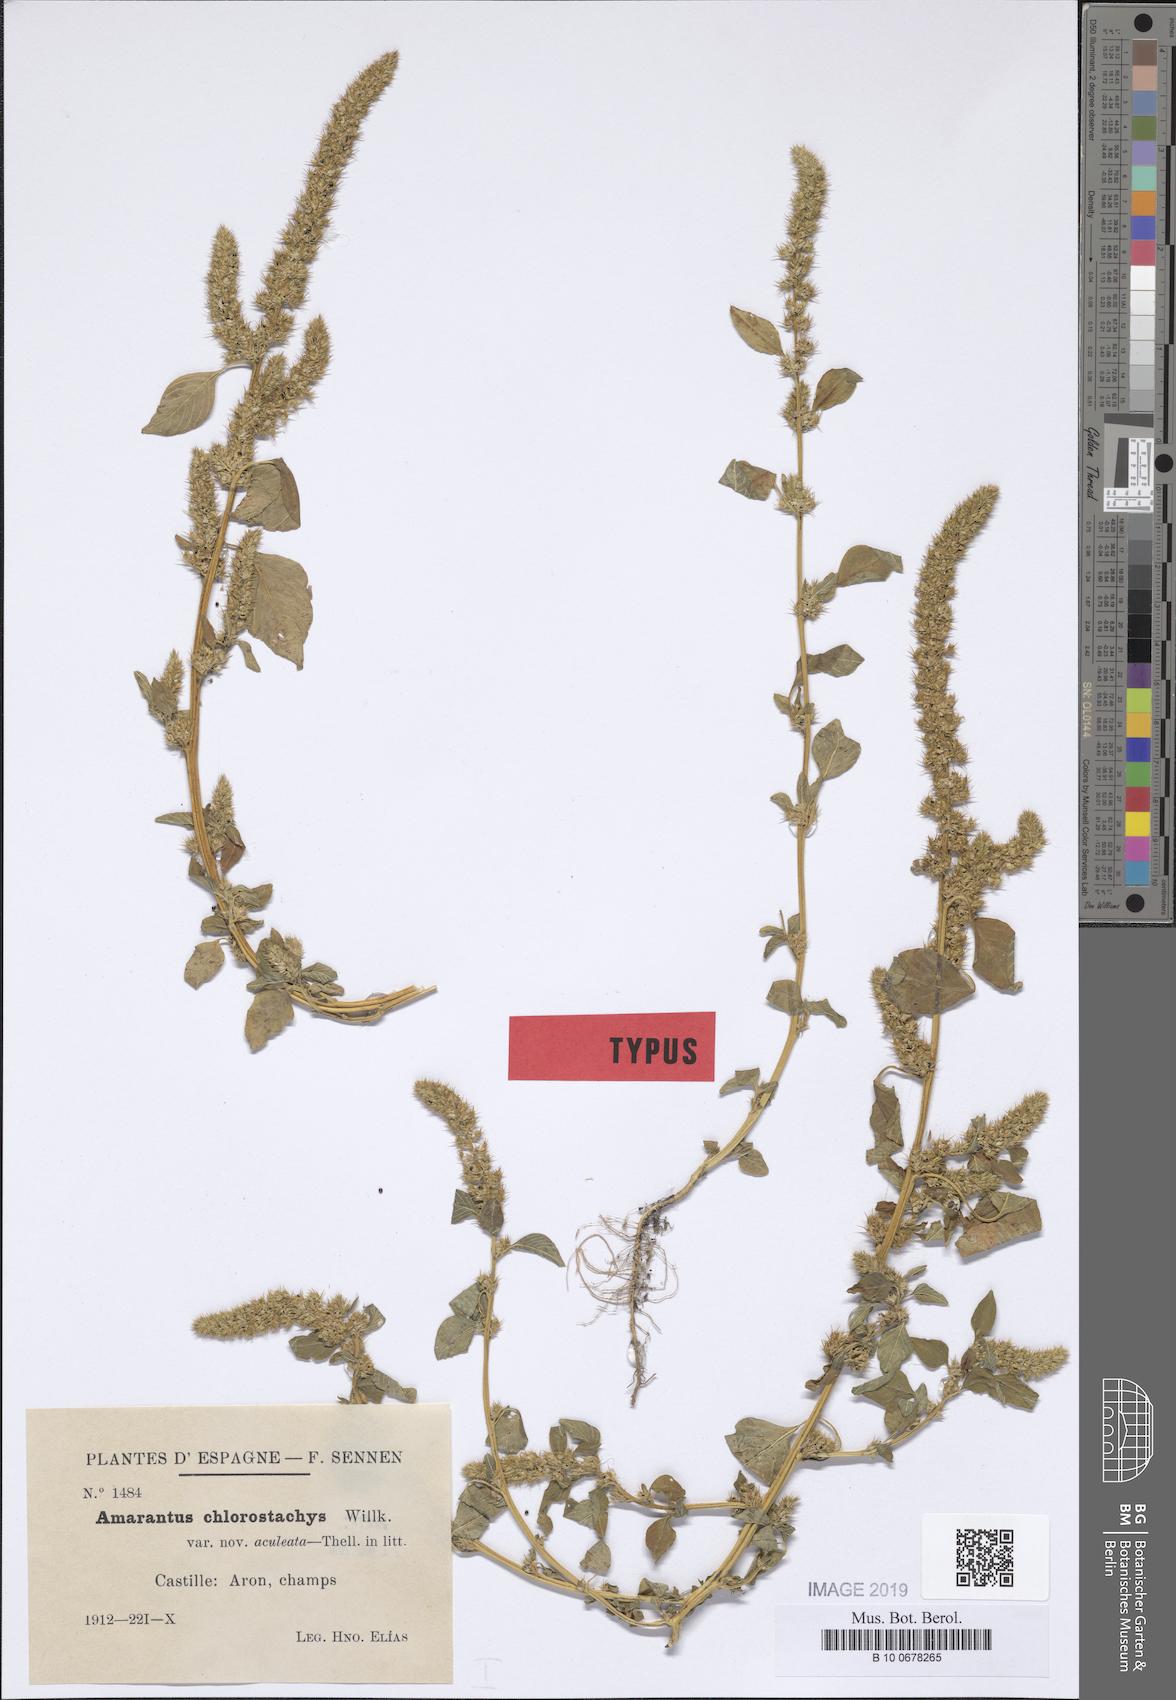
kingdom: Plantae
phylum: Tracheophyta
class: Magnoliopsida
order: Caryophyllales
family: Amaranthaceae
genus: Amaranthus
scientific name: Amaranthus hybridus
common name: Green amaranth
